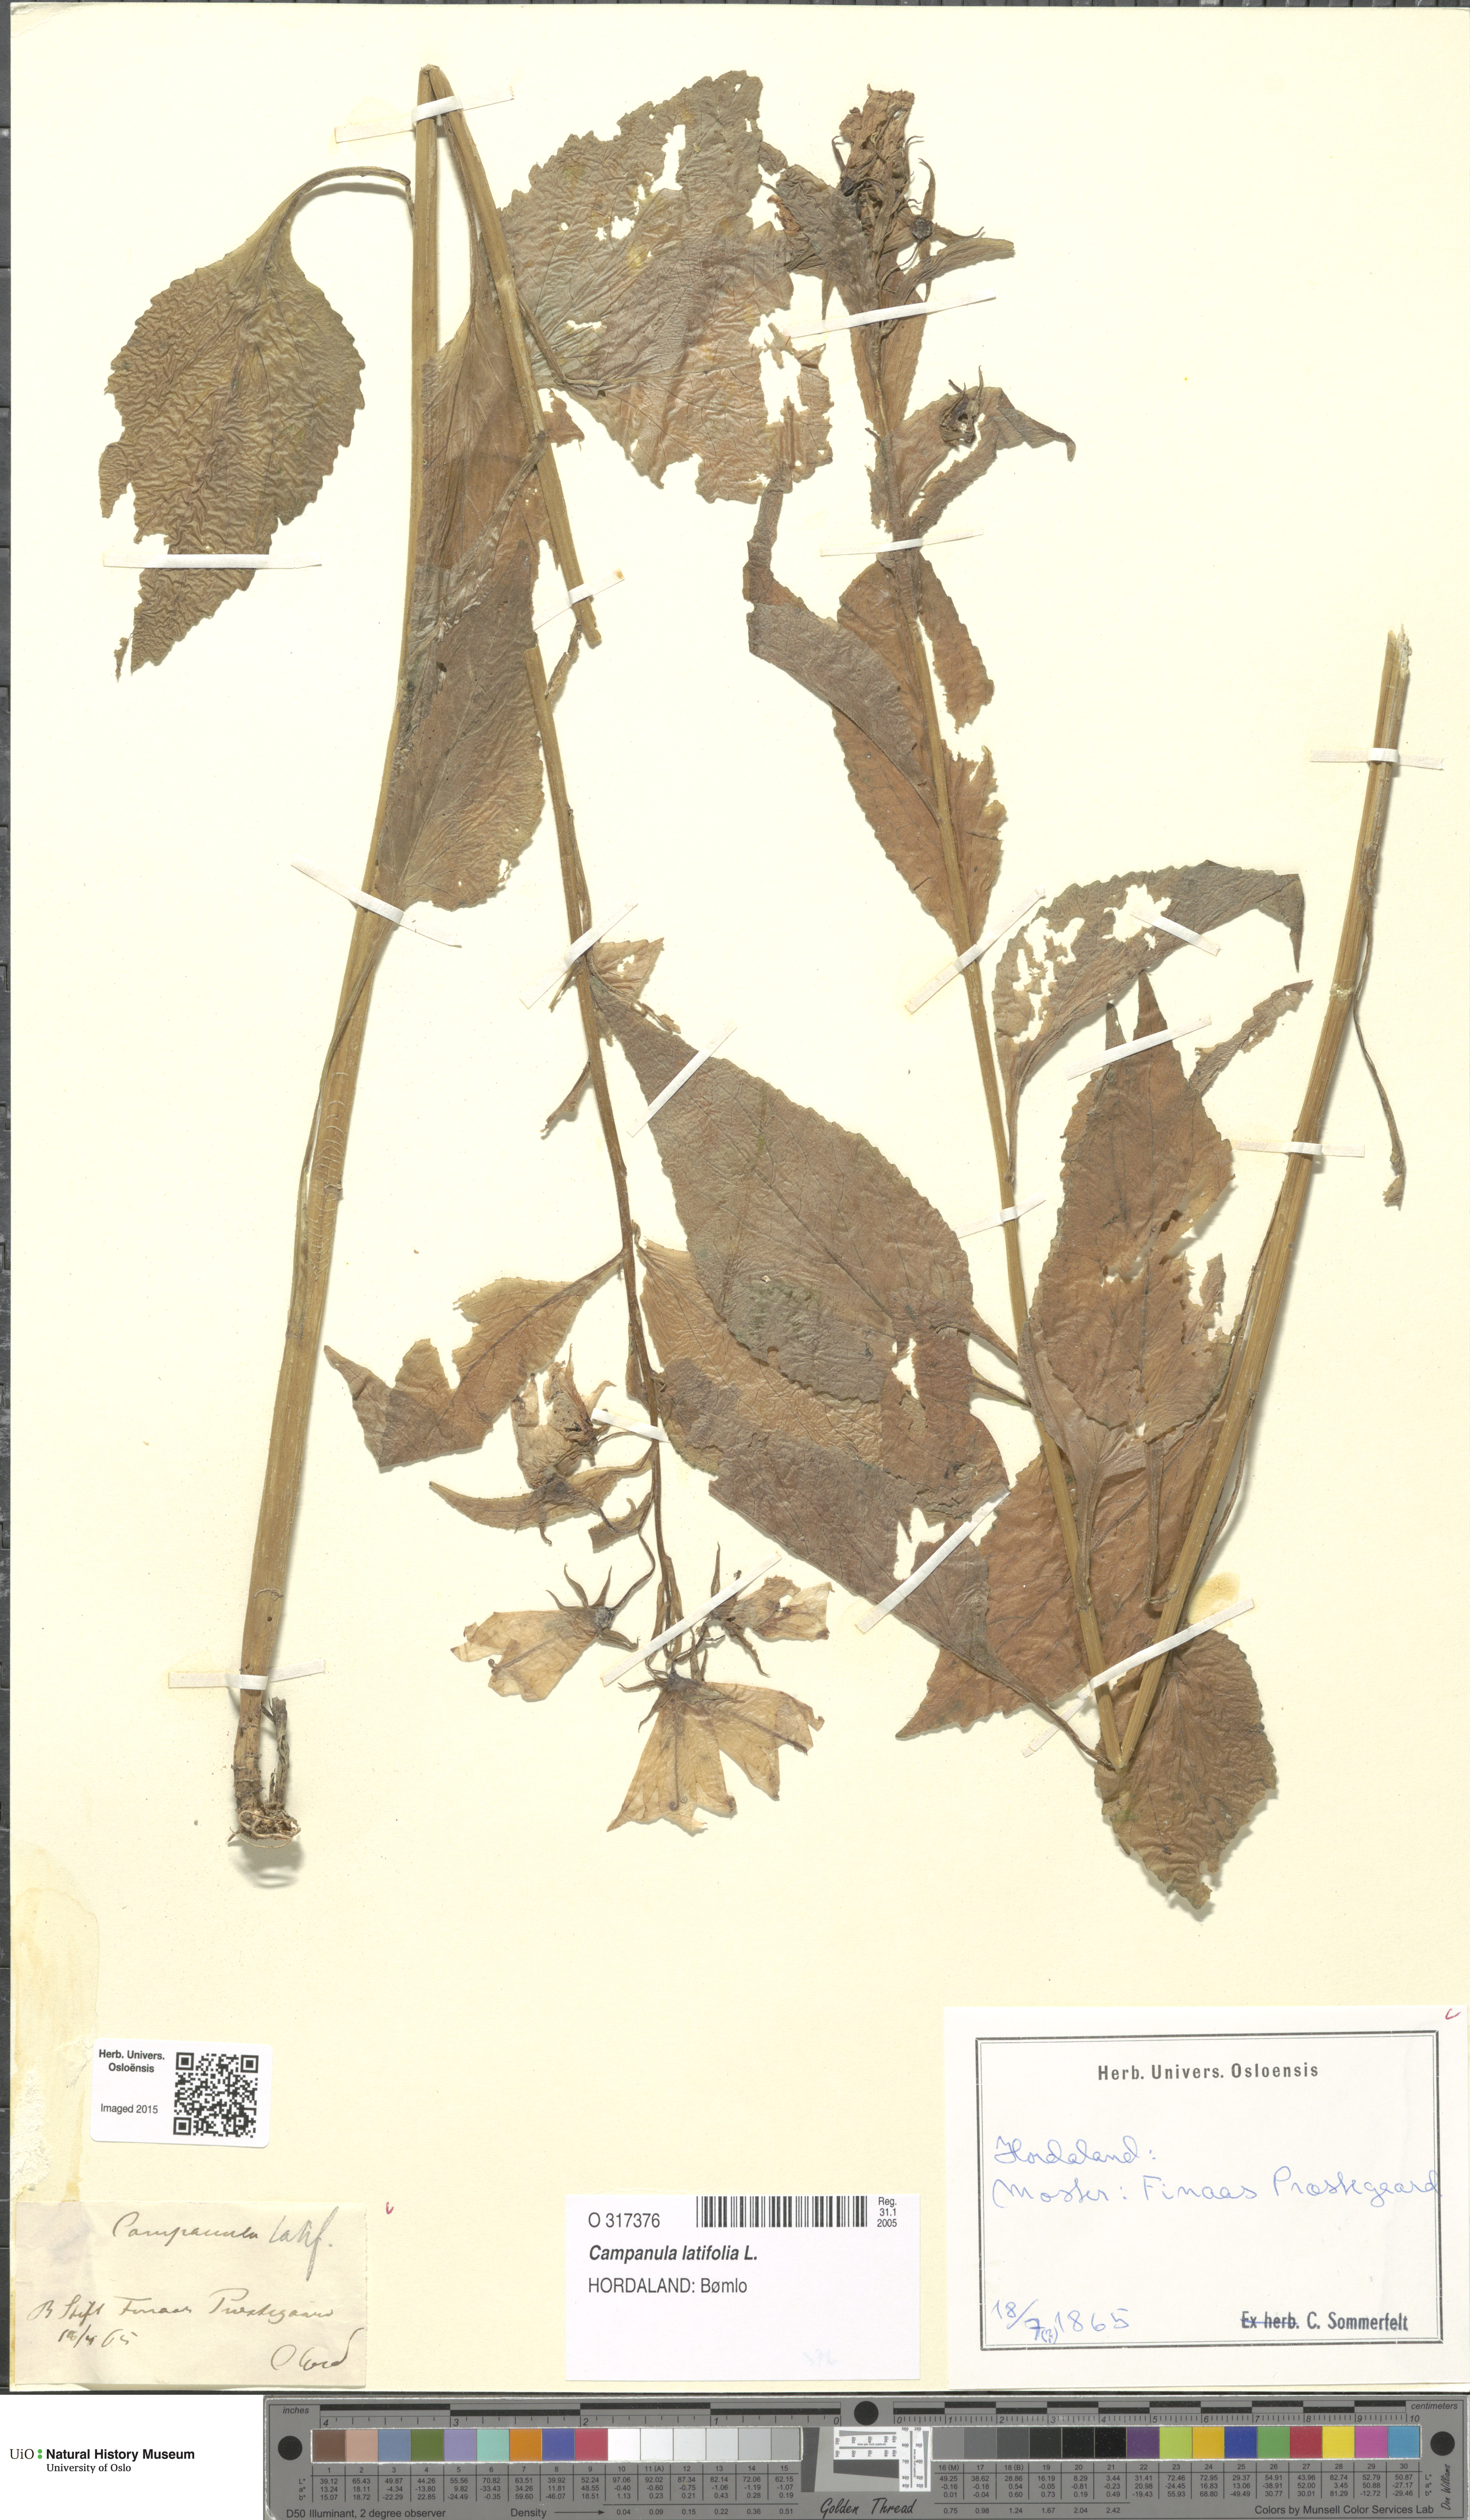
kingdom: Plantae
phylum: Tracheophyta
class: Magnoliopsida
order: Asterales
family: Campanulaceae
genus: Campanula
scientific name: Campanula latifolia
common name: Giant bellflower
